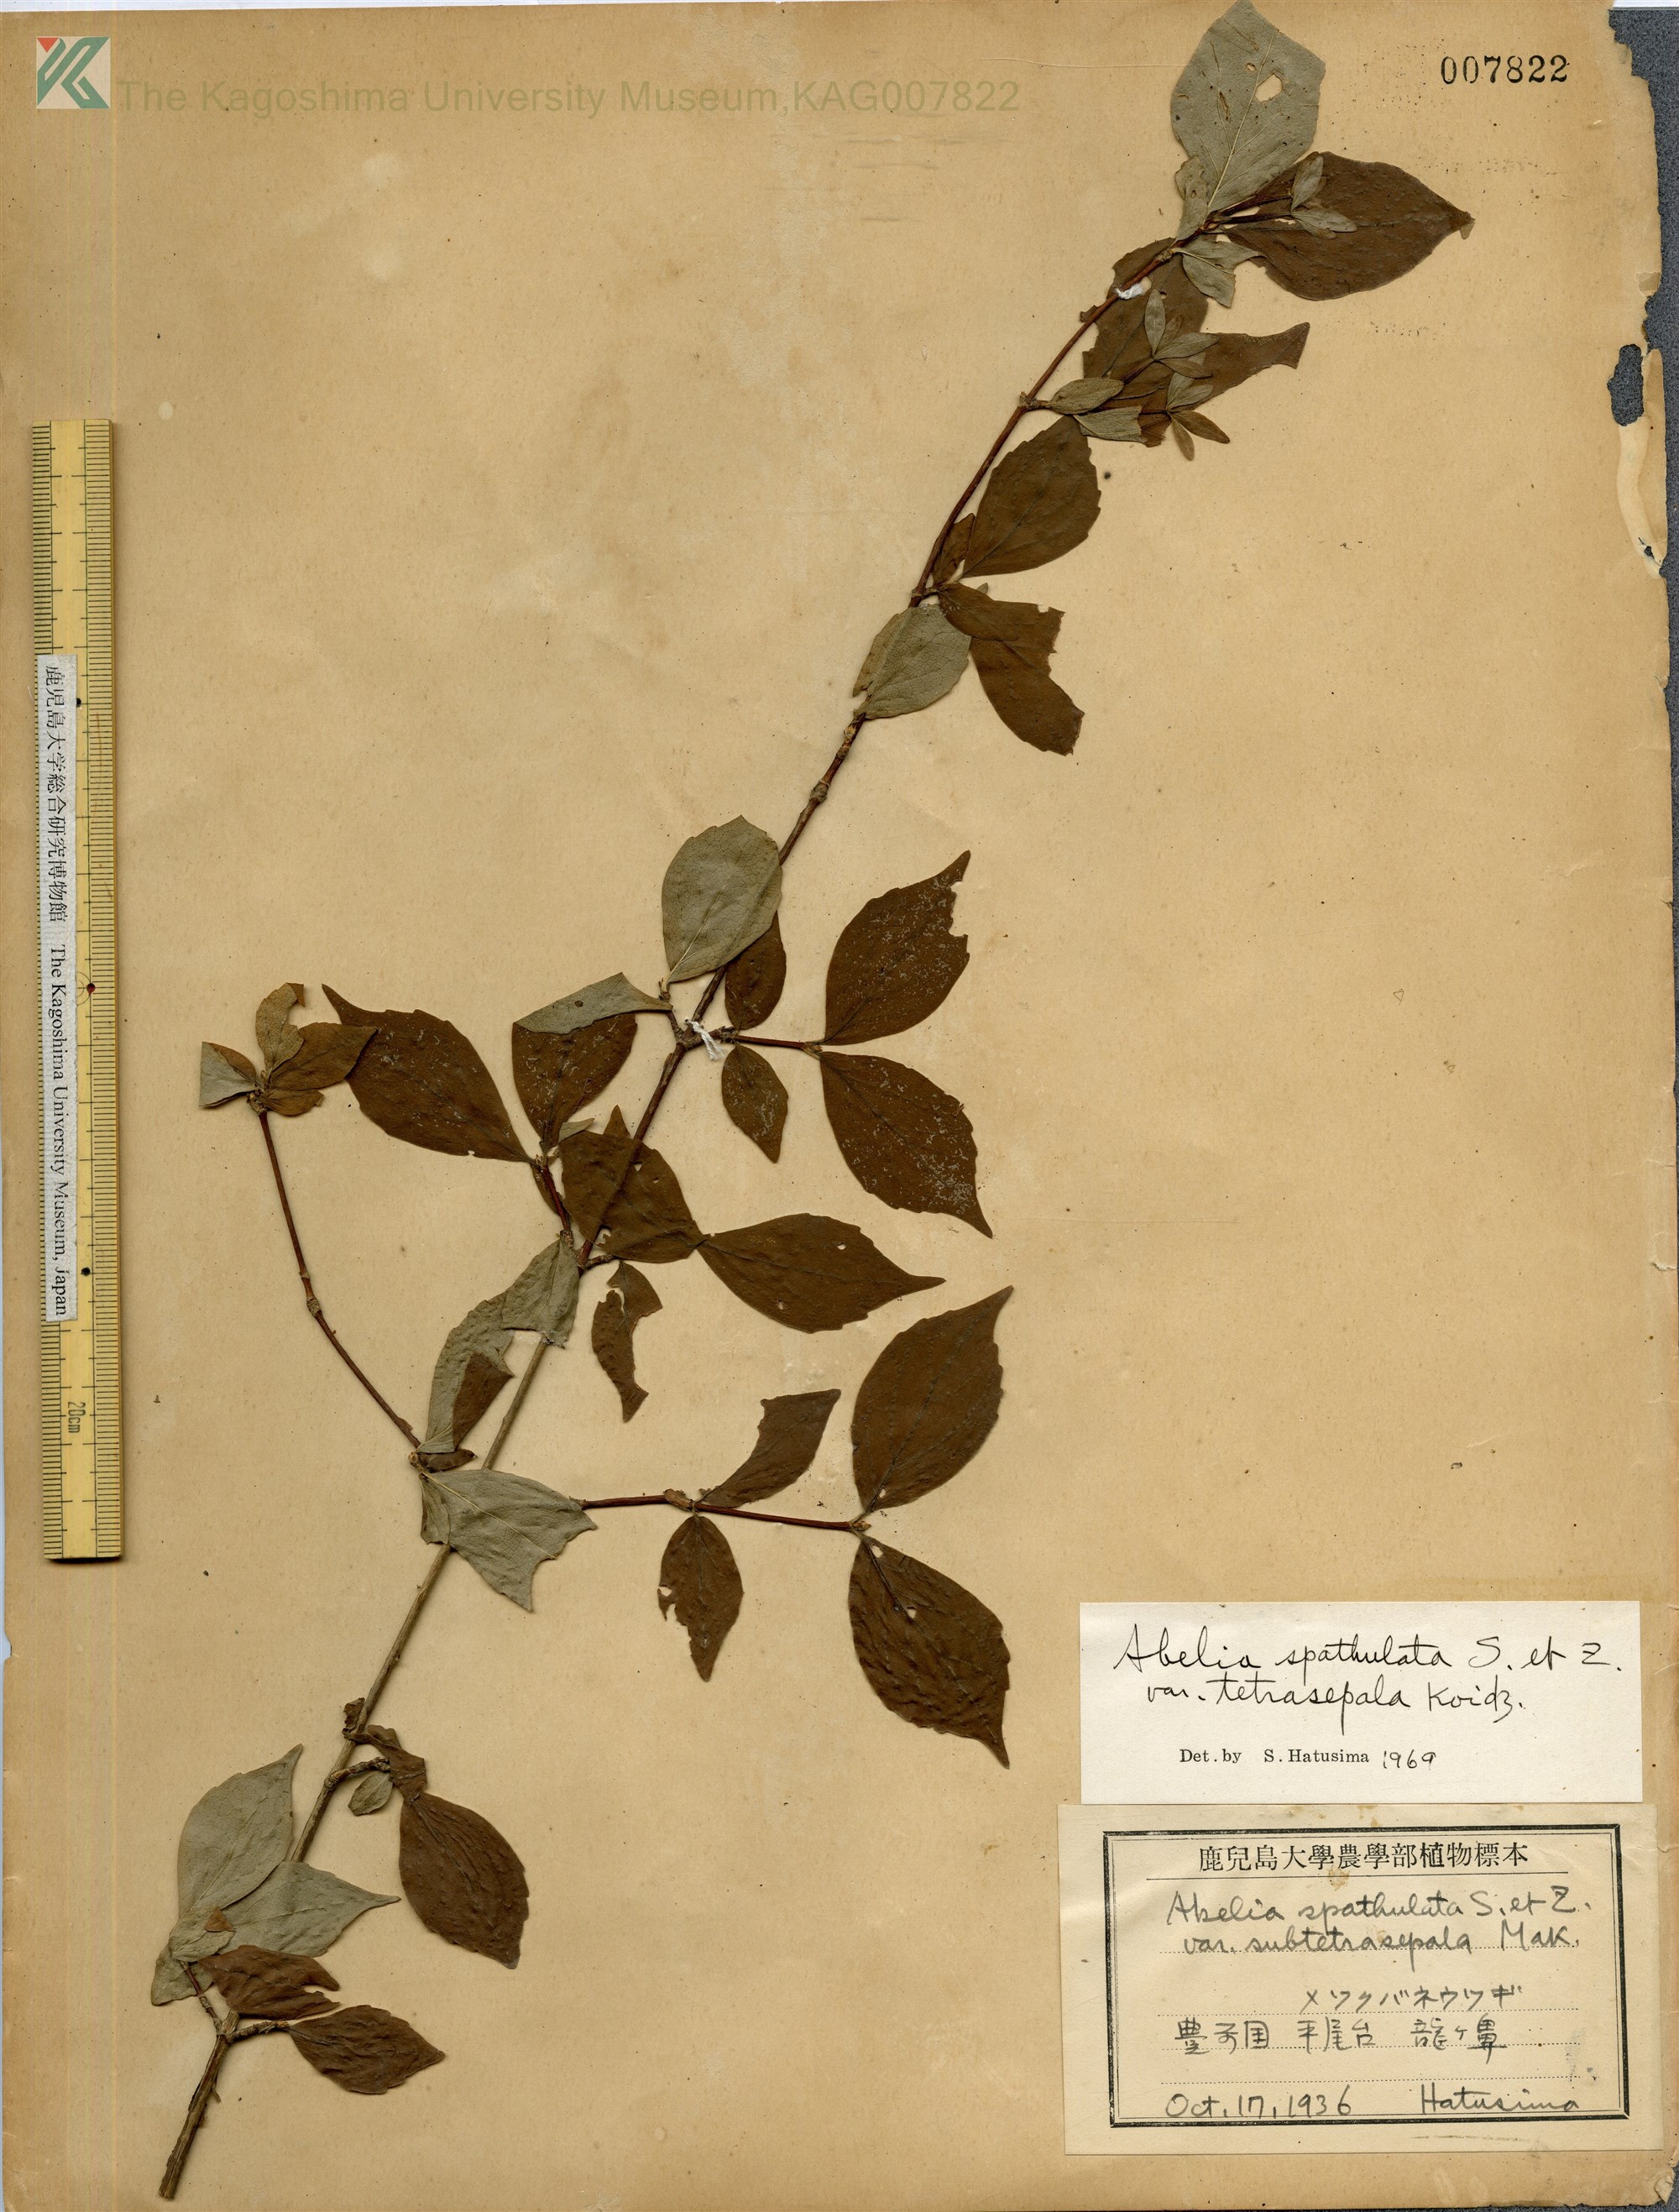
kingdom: Plantae
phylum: Tracheophyta
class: Magnoliopsida
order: Dipsacales
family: Caprifoliaceae
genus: Diabelia
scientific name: Diabelia ionostachya
